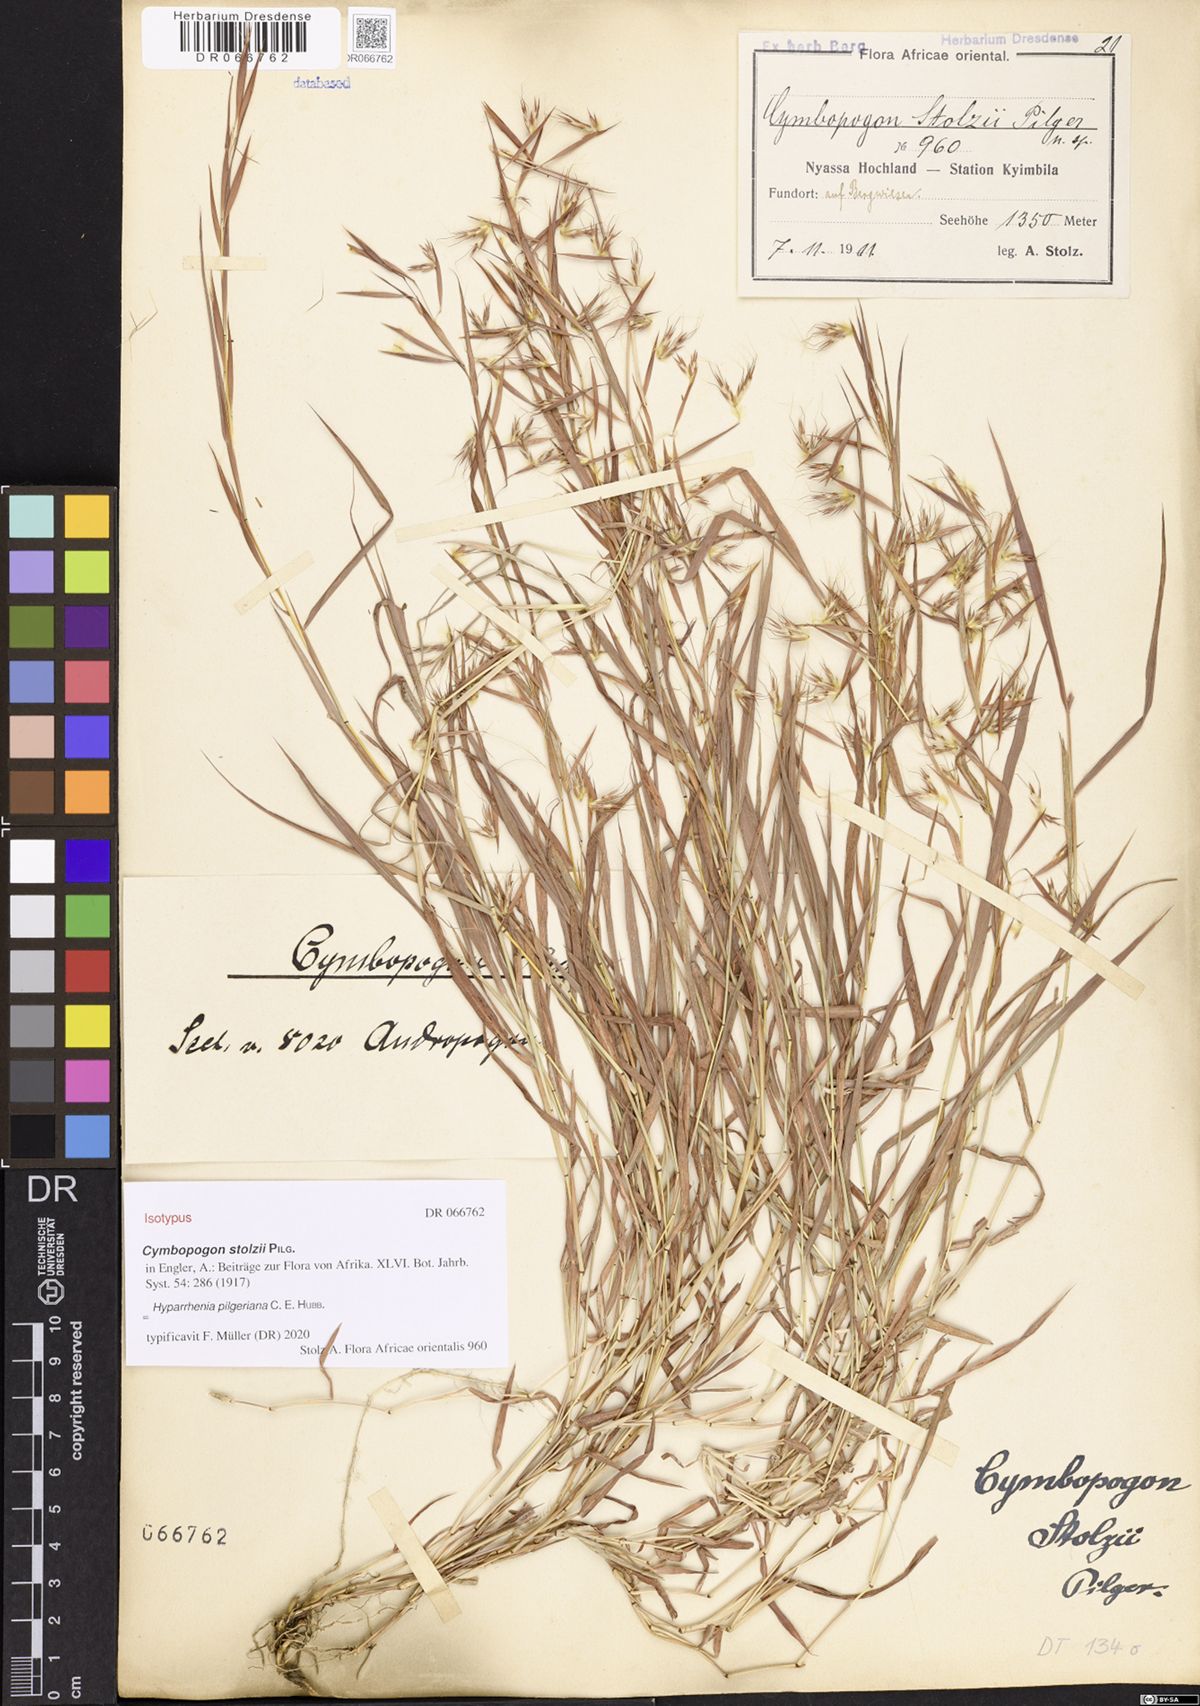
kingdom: Plantae
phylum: Tracheophyta
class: Liliopsida
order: Poales
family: Poaceae
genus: Hyparrhenia
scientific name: Hyparrhenia pilgeriana
